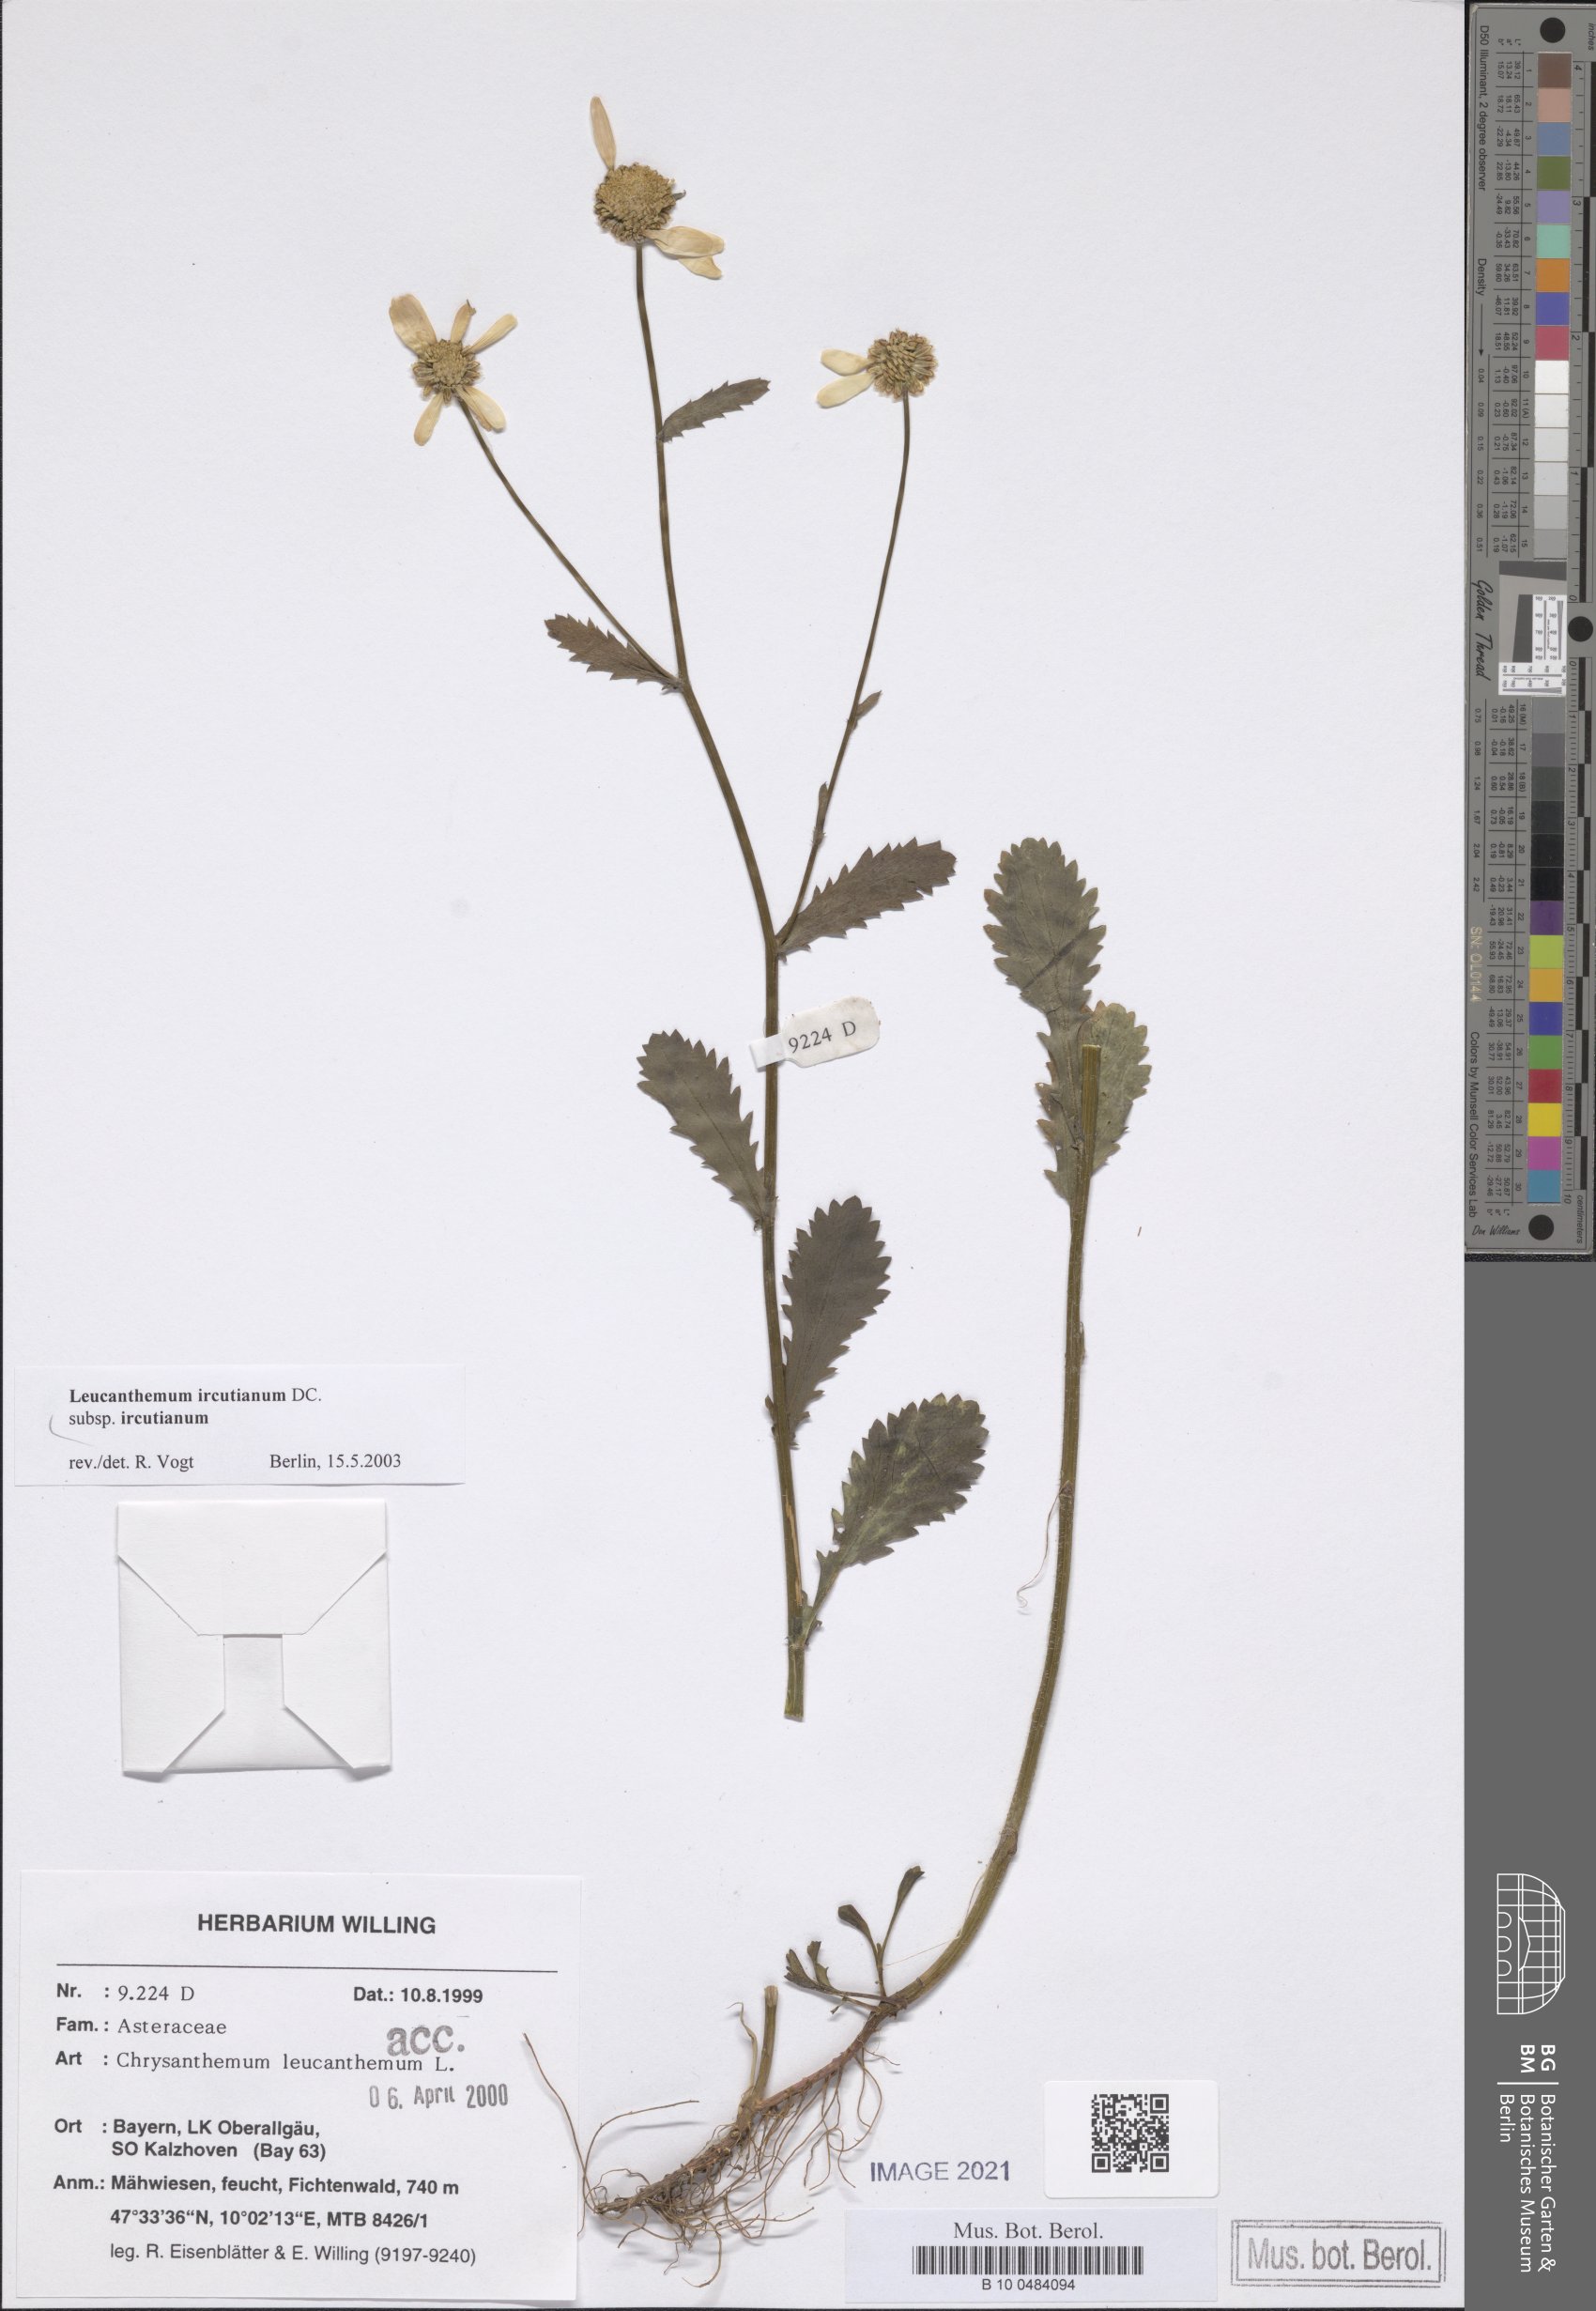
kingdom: Plantae
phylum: Tracheophyta
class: Magnoliopsida
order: Asterales
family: Asteraceae
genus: Leucanthemum
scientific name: Leucanthemum ircutianum
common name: Daisy
